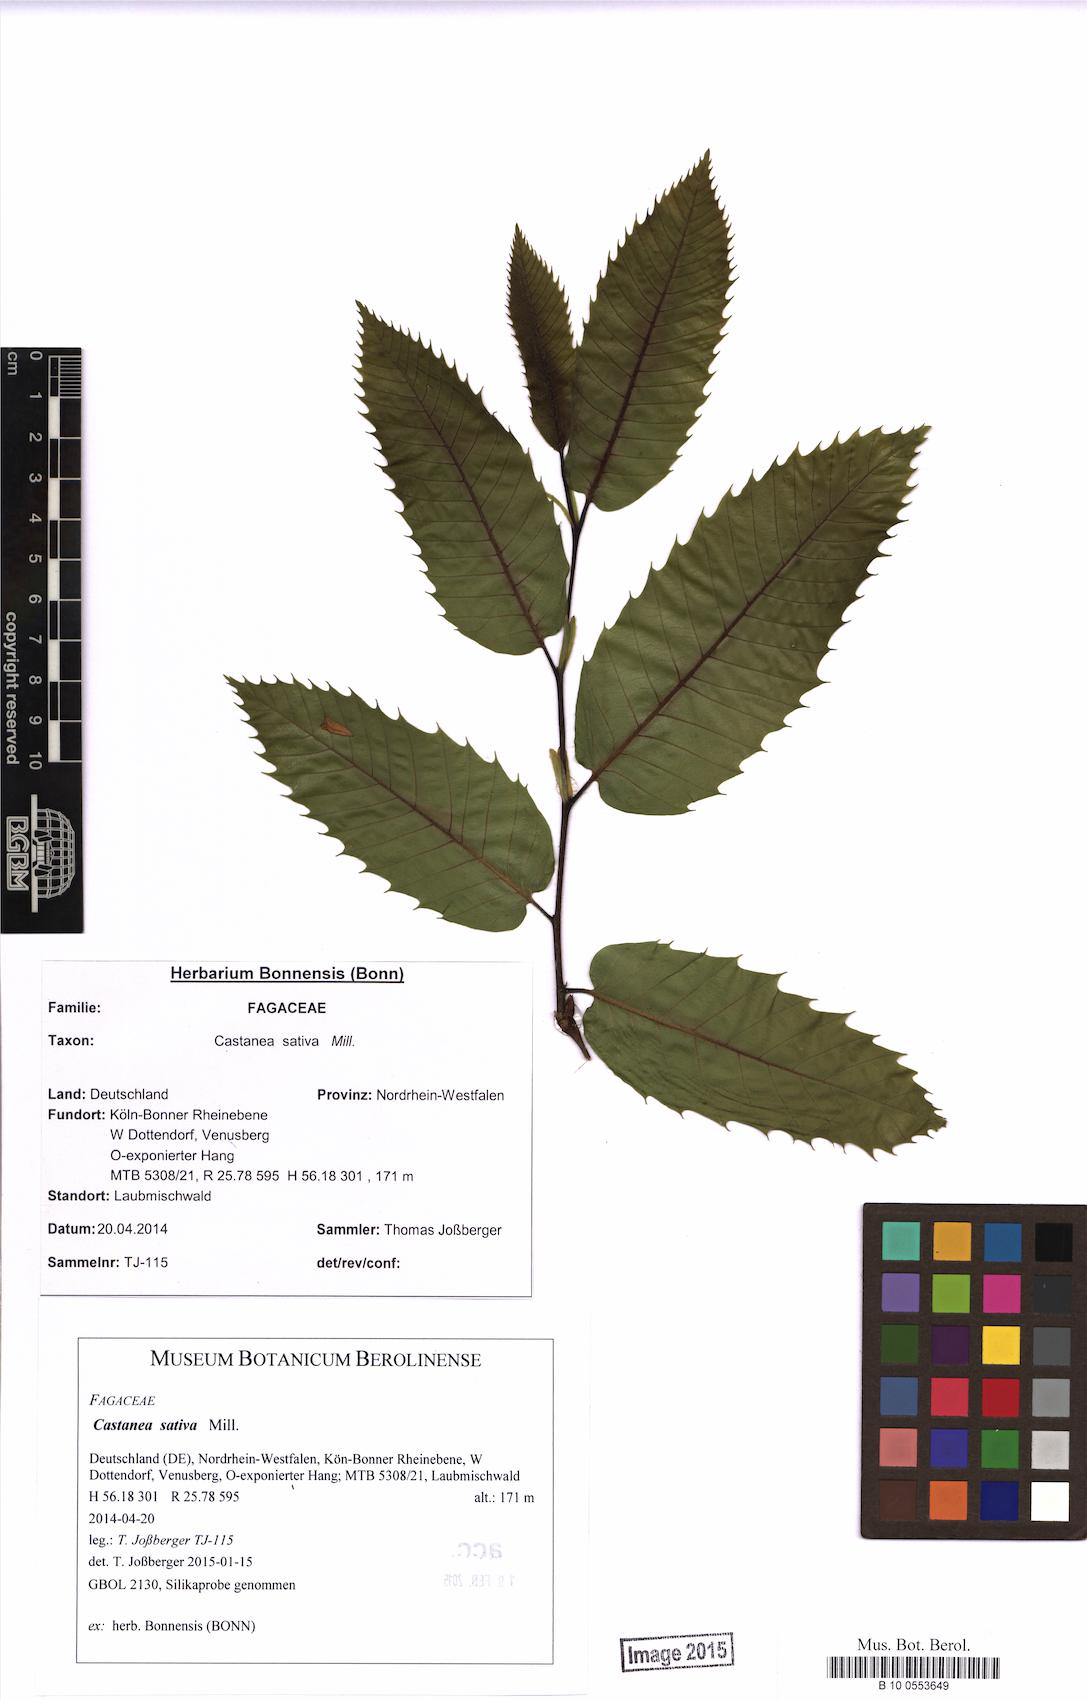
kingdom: Plantae
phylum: Tracheophyta
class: Magnoliopsida
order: Fagales
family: Fagaceae
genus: Castanea
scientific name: Castanea sativa
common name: Sweet chestnut
